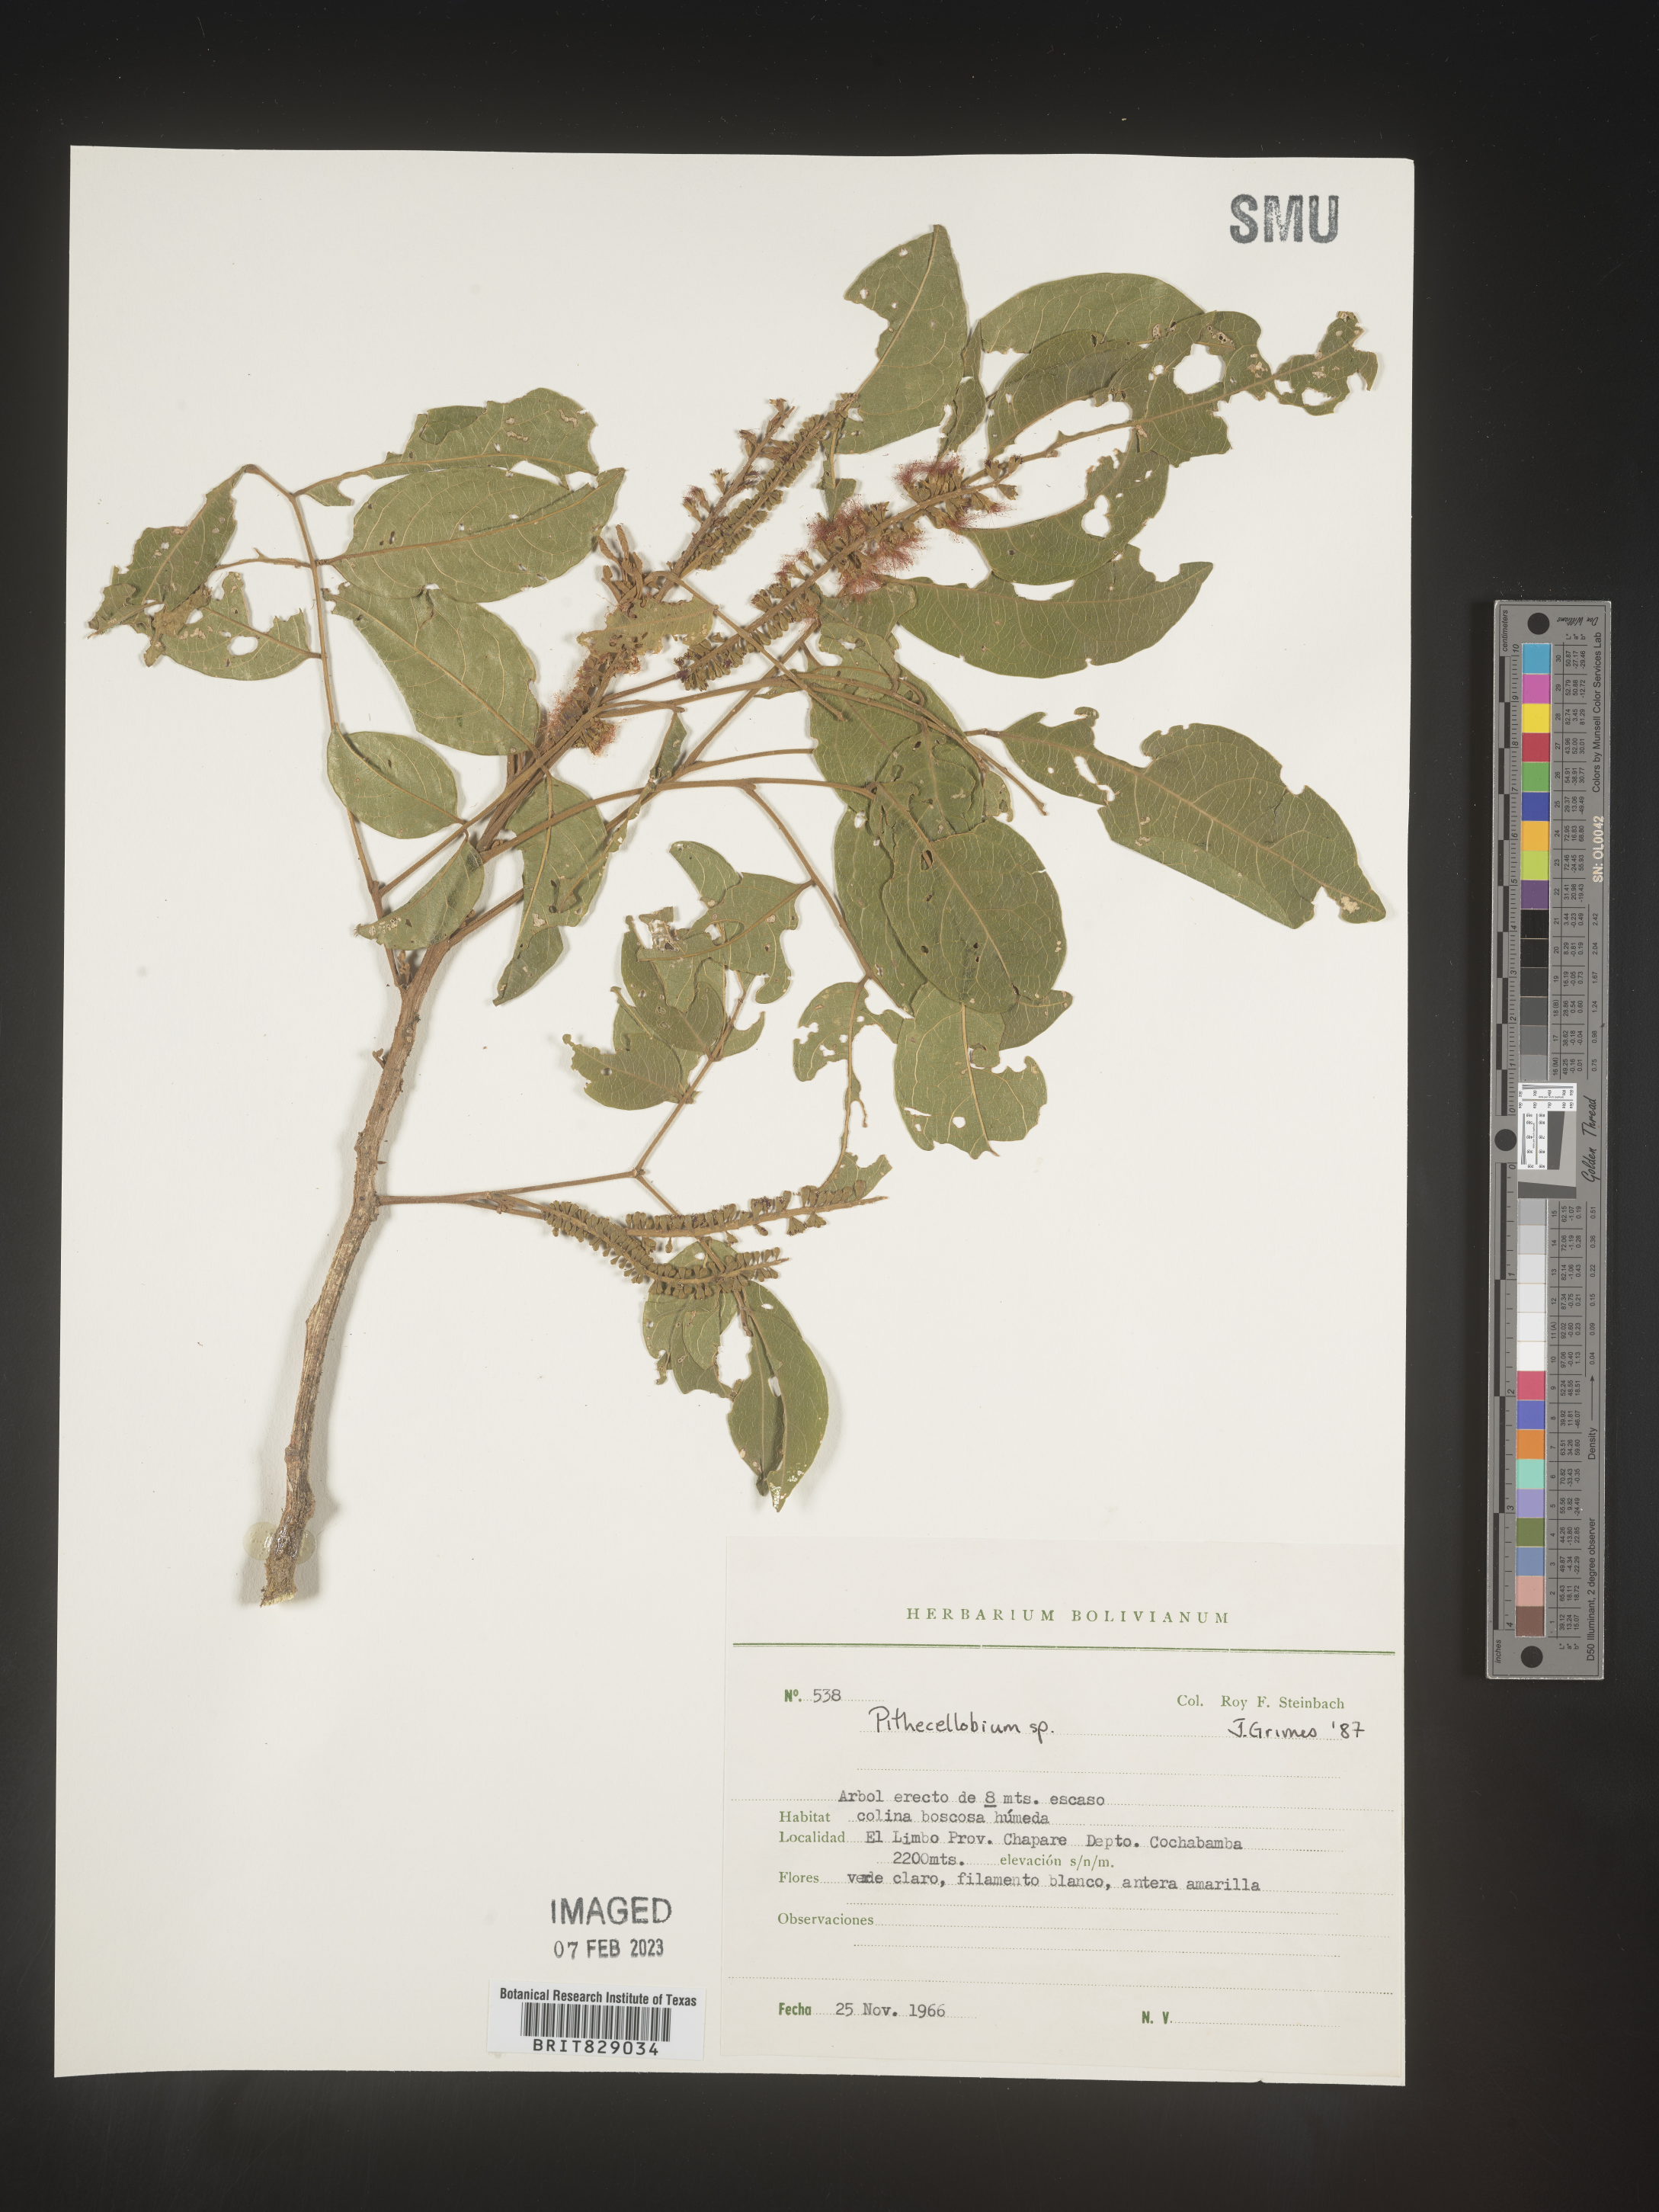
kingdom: Plantae
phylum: Tracheophyta
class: Magnoliopsida
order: Fabales
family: Fabaceae
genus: Pithecellobium
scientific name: Pithecellobium
